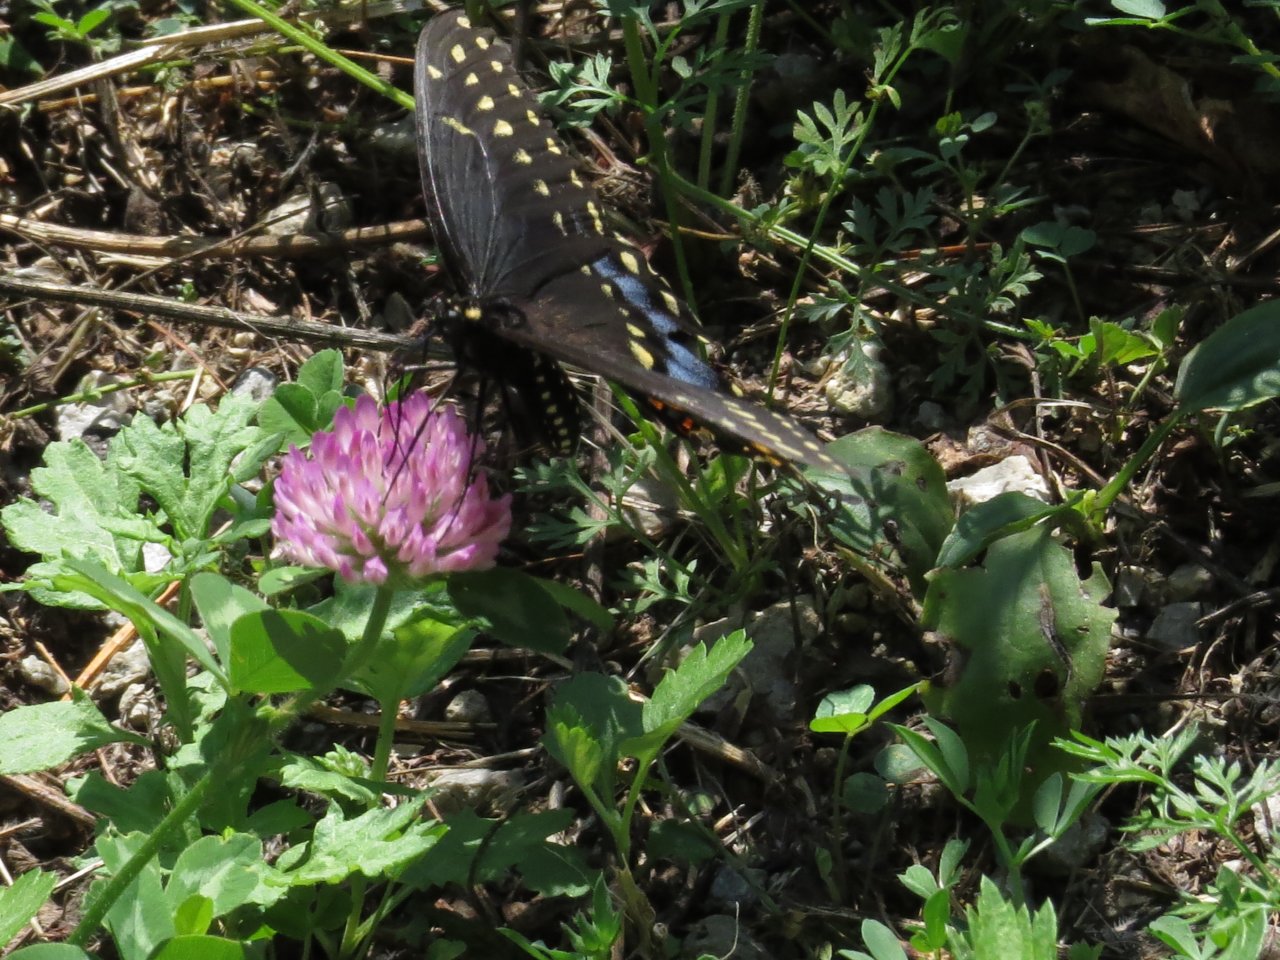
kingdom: Animalia
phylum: Arthropoda
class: Insecta
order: Lepidoptera
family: Papilionidae
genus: Papilio
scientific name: Papilio polyxenes
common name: Black Swallowtail
